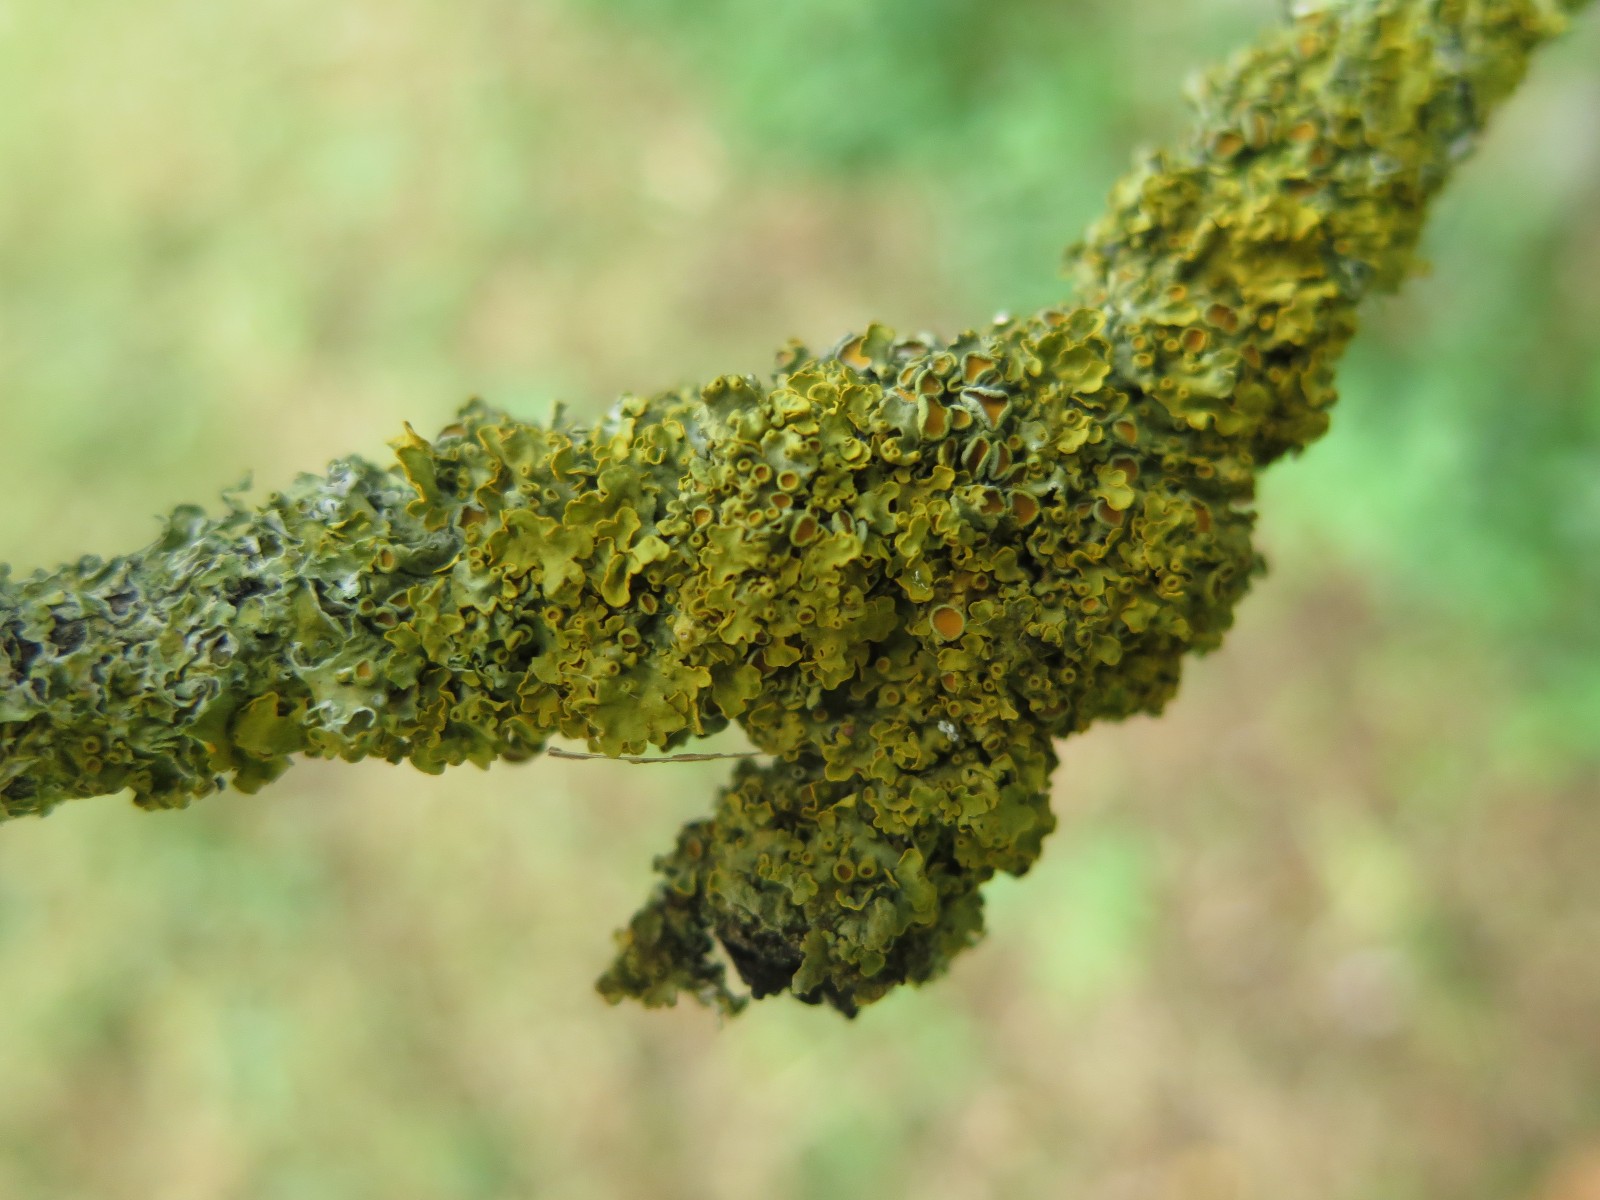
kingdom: Fungi
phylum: Ascomycota
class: Lecanoromycetes
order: Teloschistales
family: Teloschistaceae
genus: Xanthoria
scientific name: Xanthoria parietina
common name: almindelig væggelav
